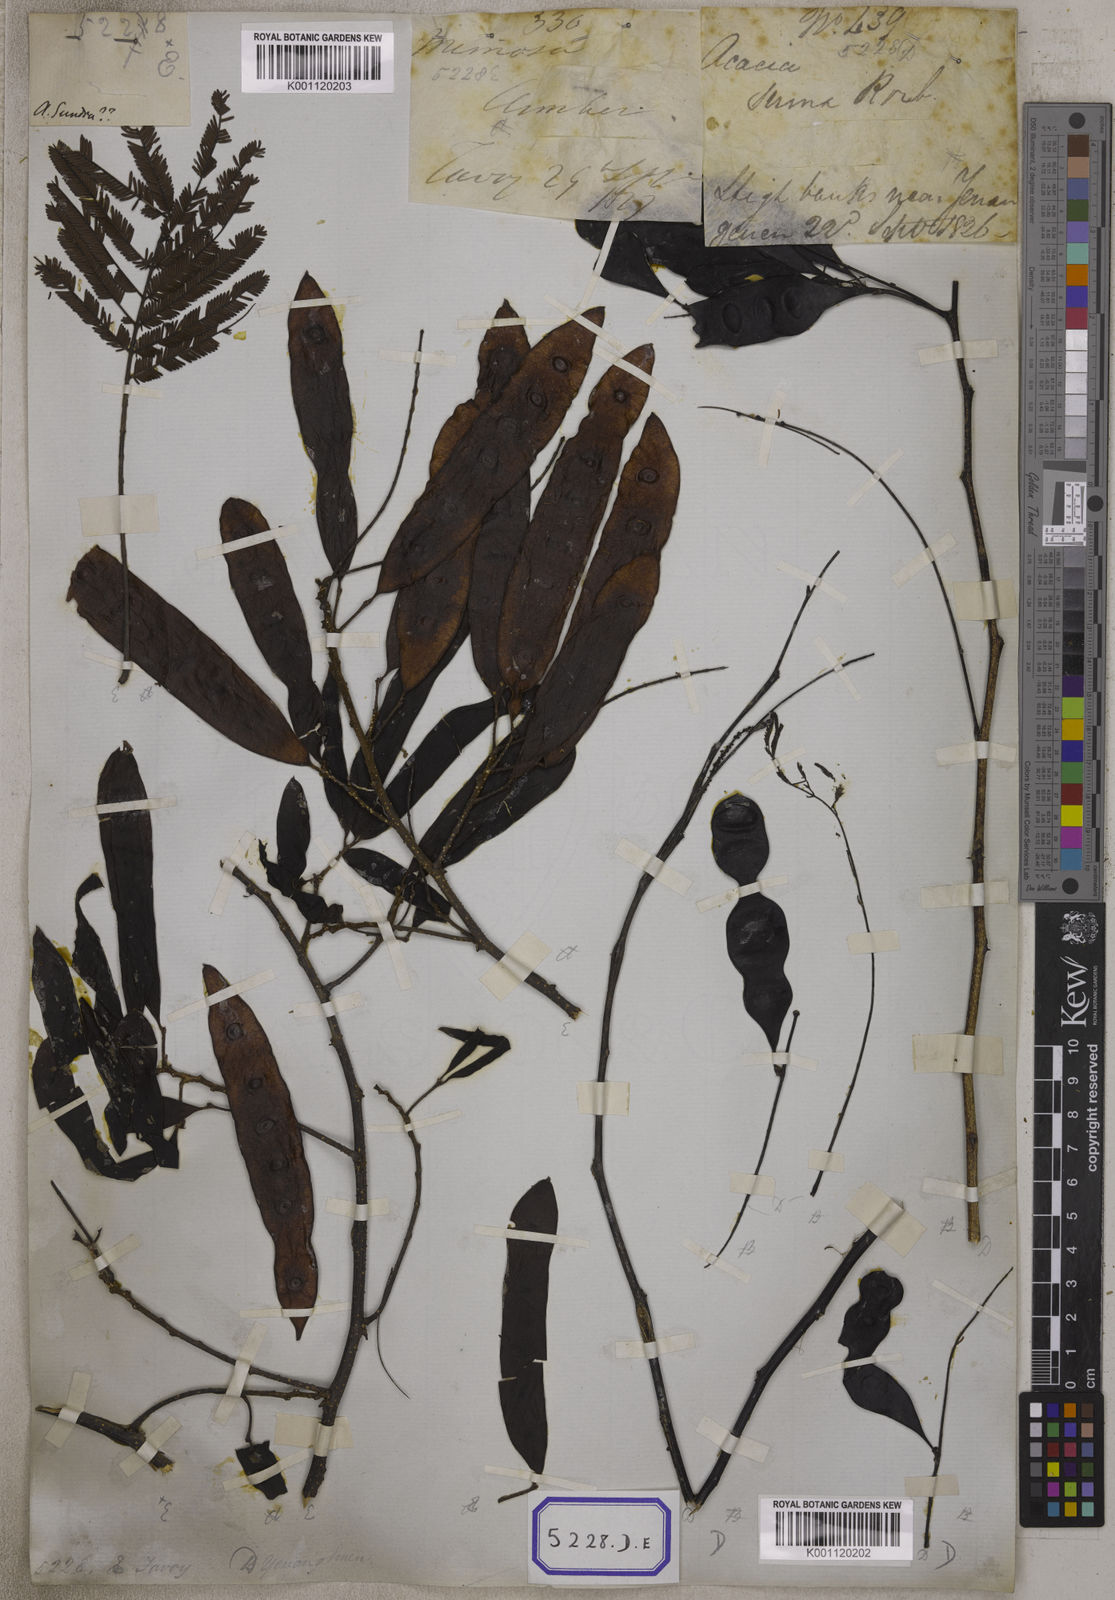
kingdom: Plantae
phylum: Tracheophyta
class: Magnoliopsida
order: Fabales
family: Fabaceae
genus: Senegalia
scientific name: Senegalia catechu
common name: Black cutch
